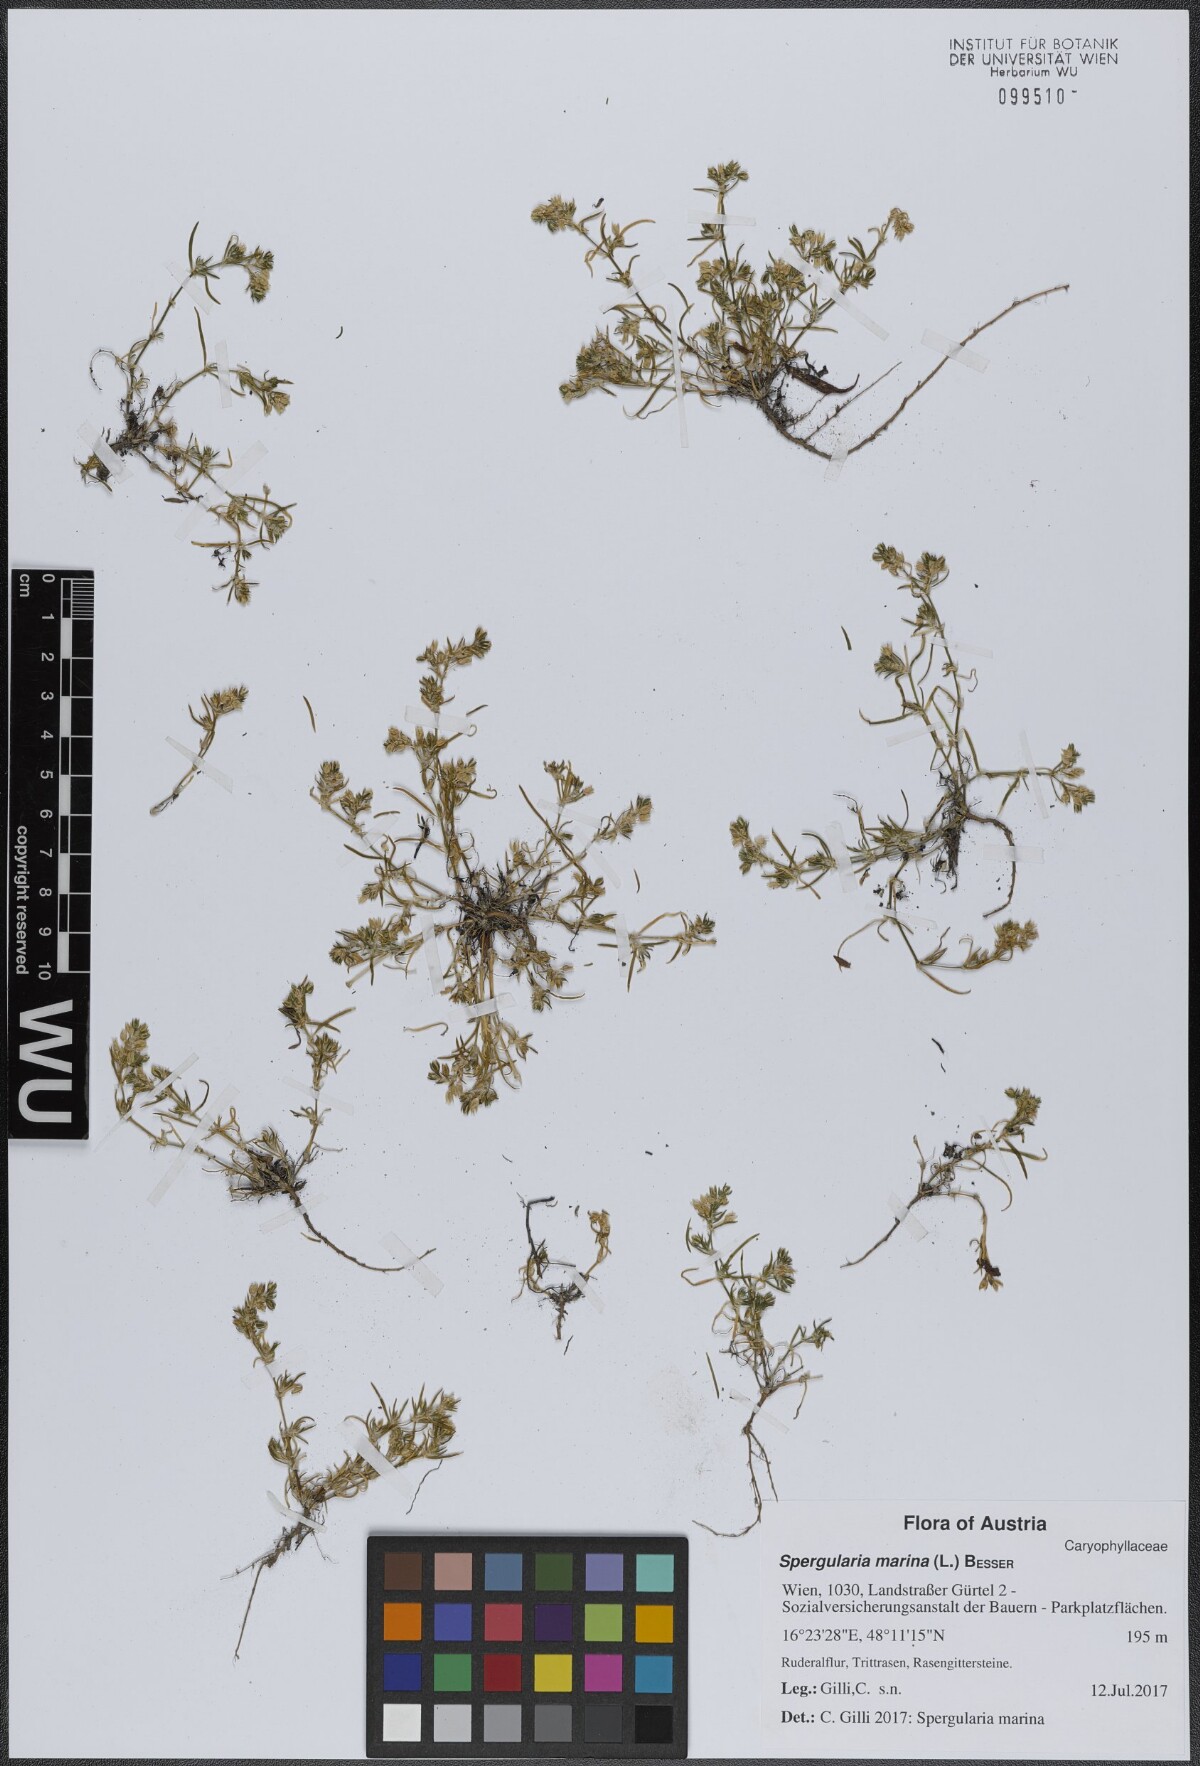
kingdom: Plantae
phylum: Tracheophyta
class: Magnoliopsida
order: Caryophyllales
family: Caryophyllaceae
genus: Spergularia
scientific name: Spergularia marina
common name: Lesser sea-spurrey
